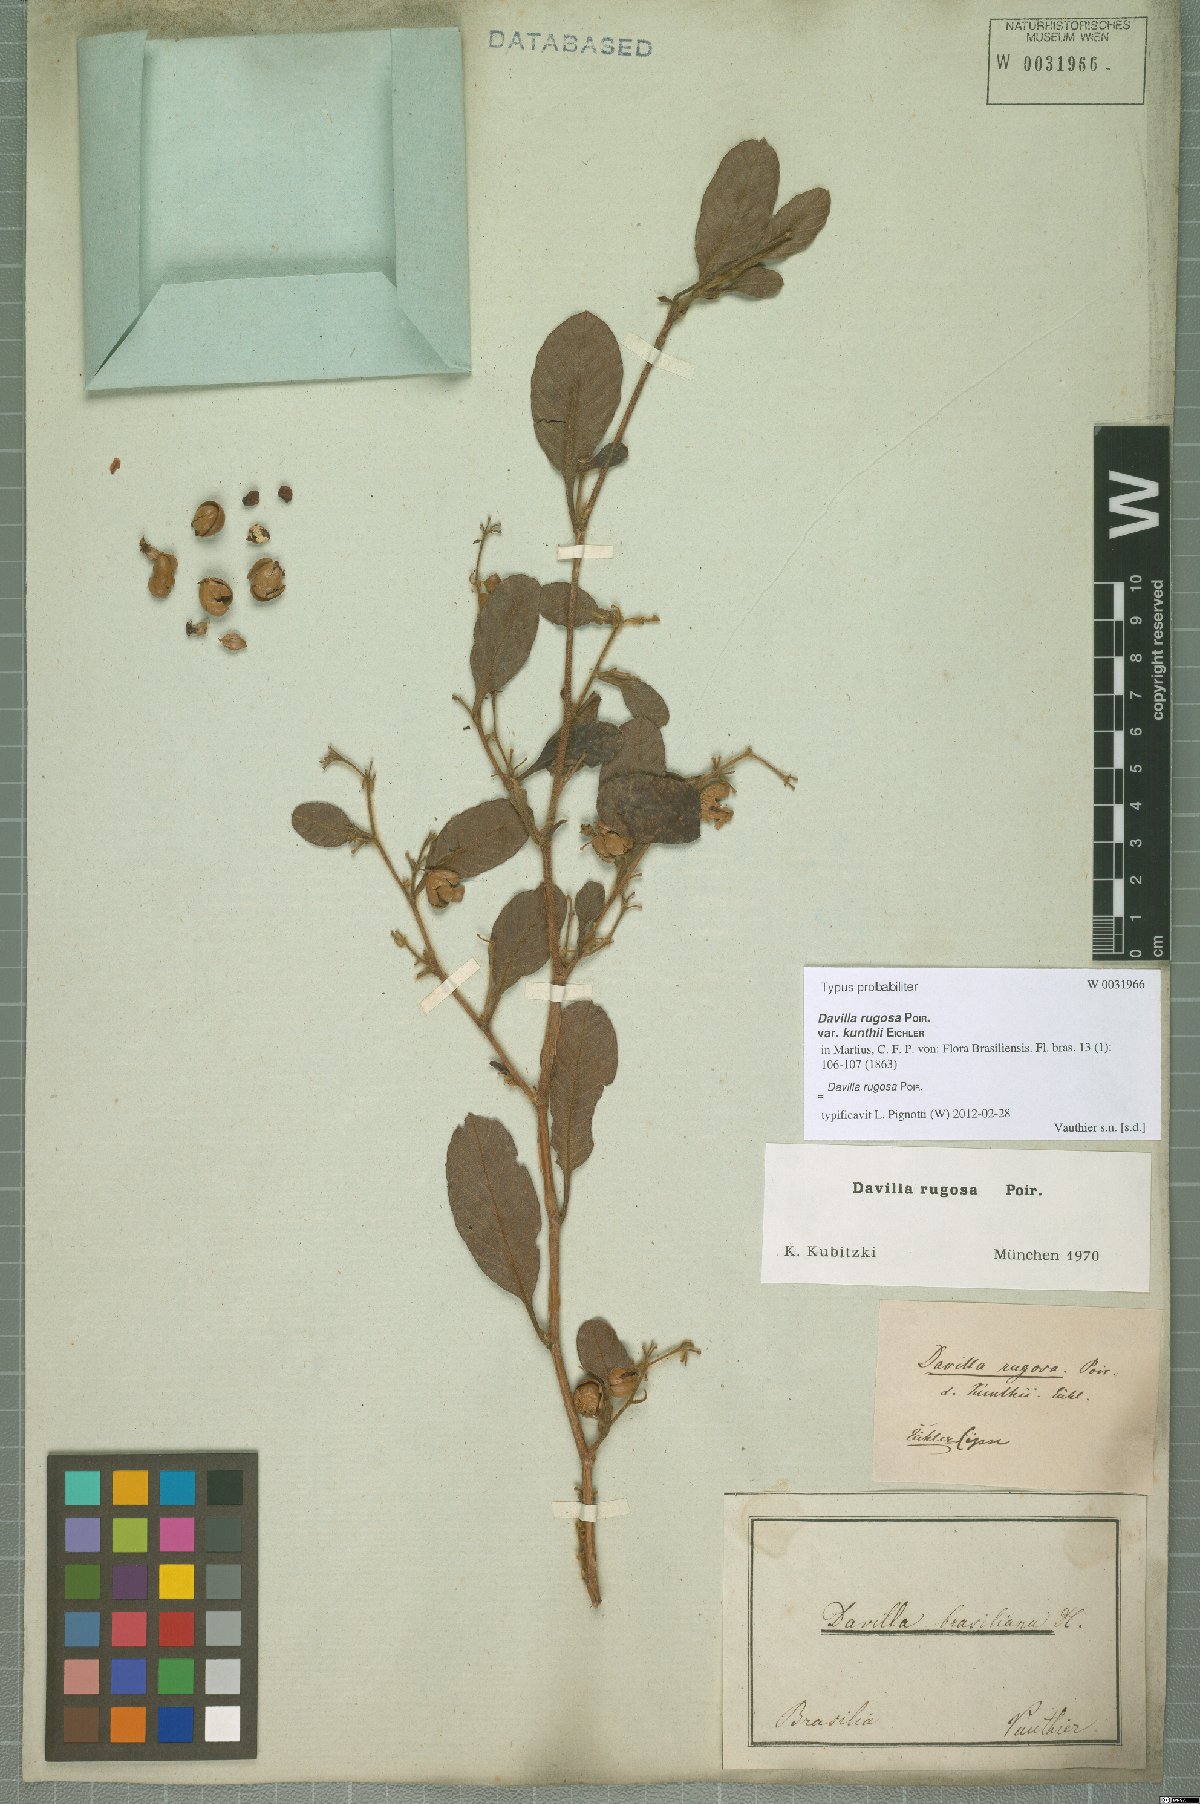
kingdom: Plantae
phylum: Tracheophyta
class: Magnoliopsida
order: Dilleniales
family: Dilleniaceae
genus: Davilla
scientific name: Davilla rugosa
